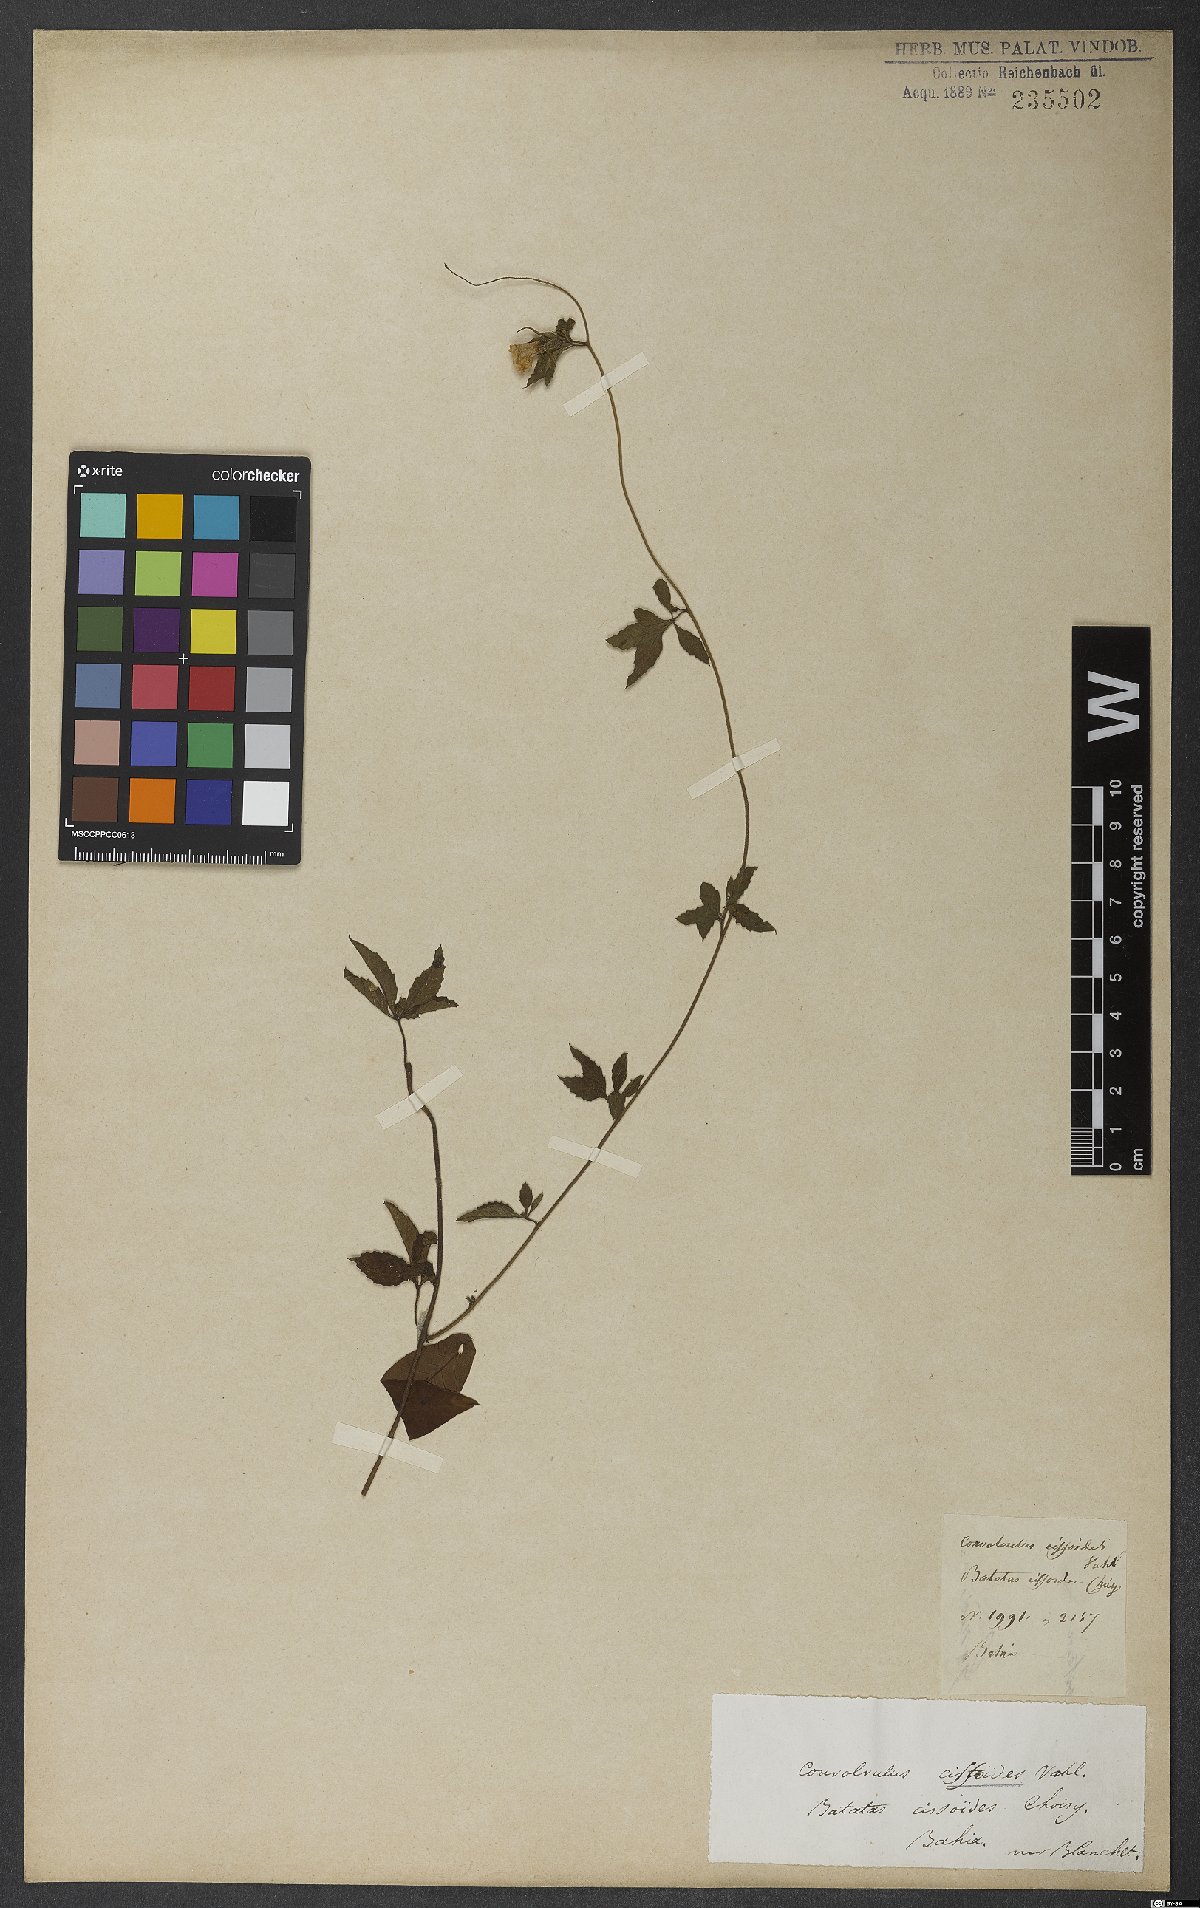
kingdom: Plantae
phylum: Tracheophyta
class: Magnoliopsida
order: Solanales
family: Convolvulaceae
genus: Distimake
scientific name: Distimake cissoides
